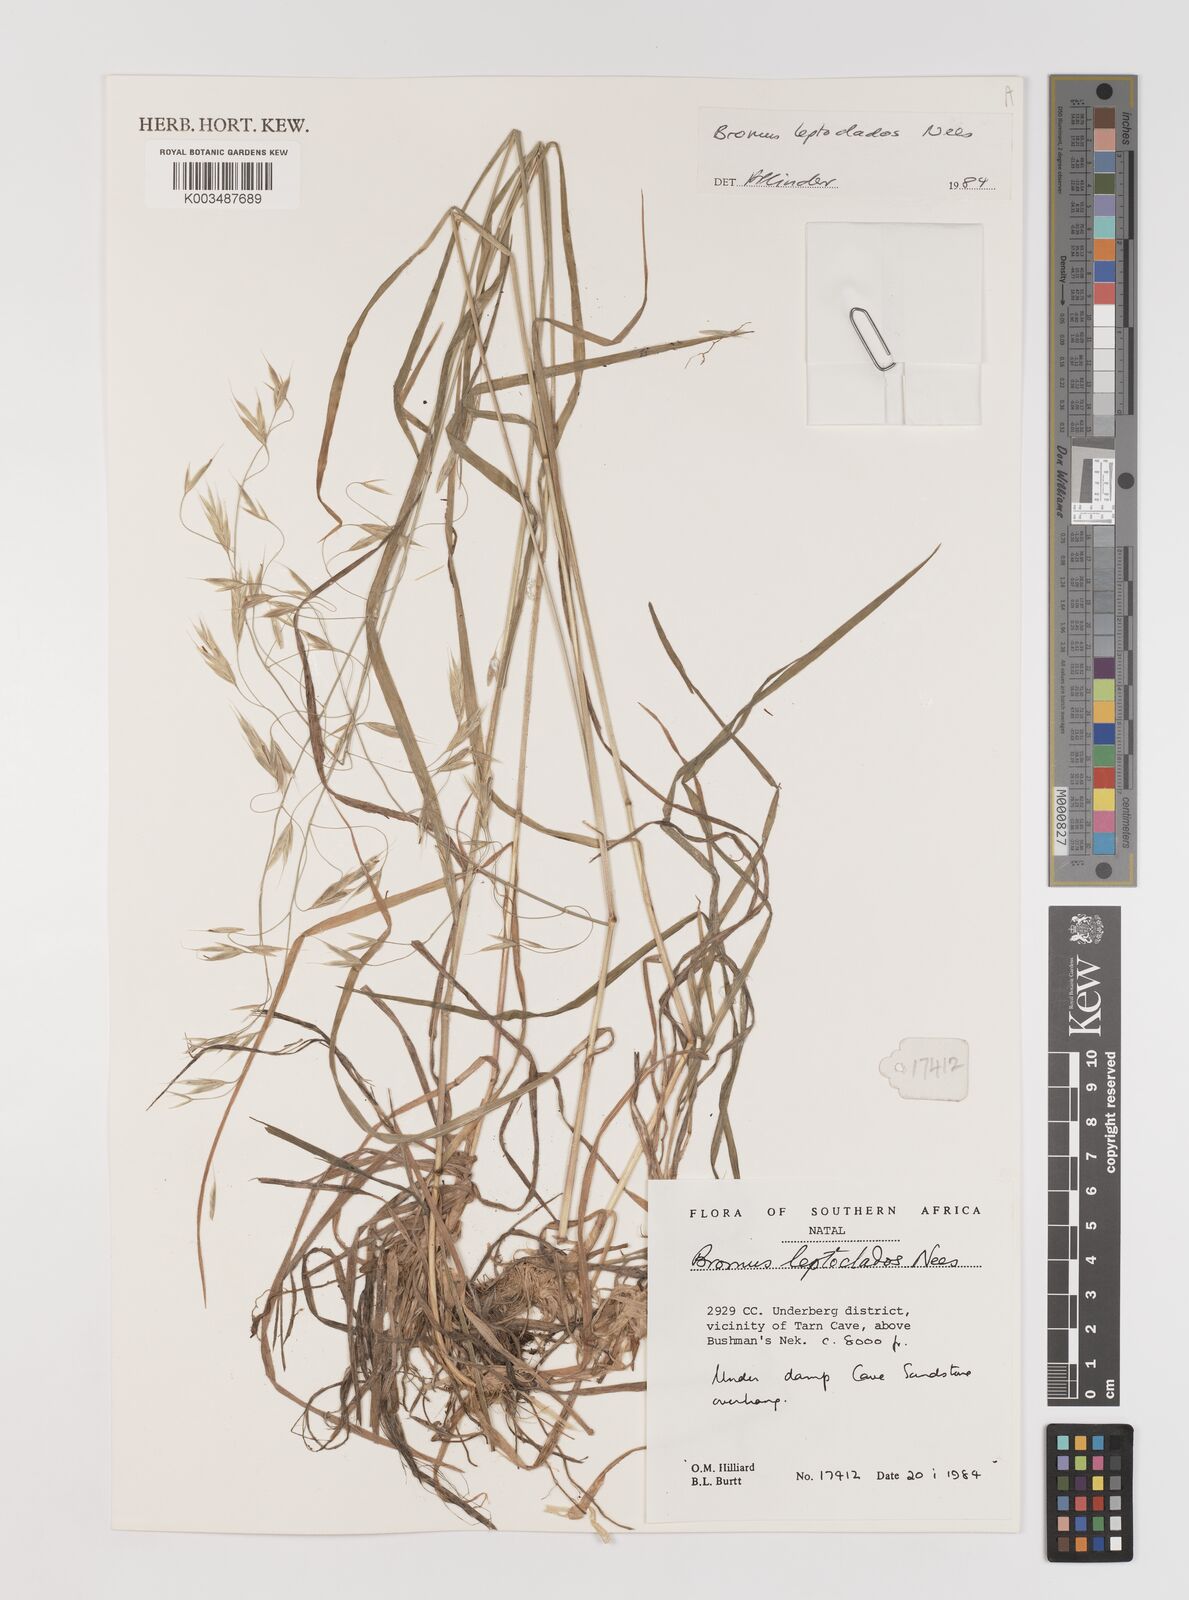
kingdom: Plantae
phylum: Tracheophyta
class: Liliopsida
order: Poales
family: Poaceae
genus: Bromus
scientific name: Bromus leptoclados
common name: Mountain bromegrass
